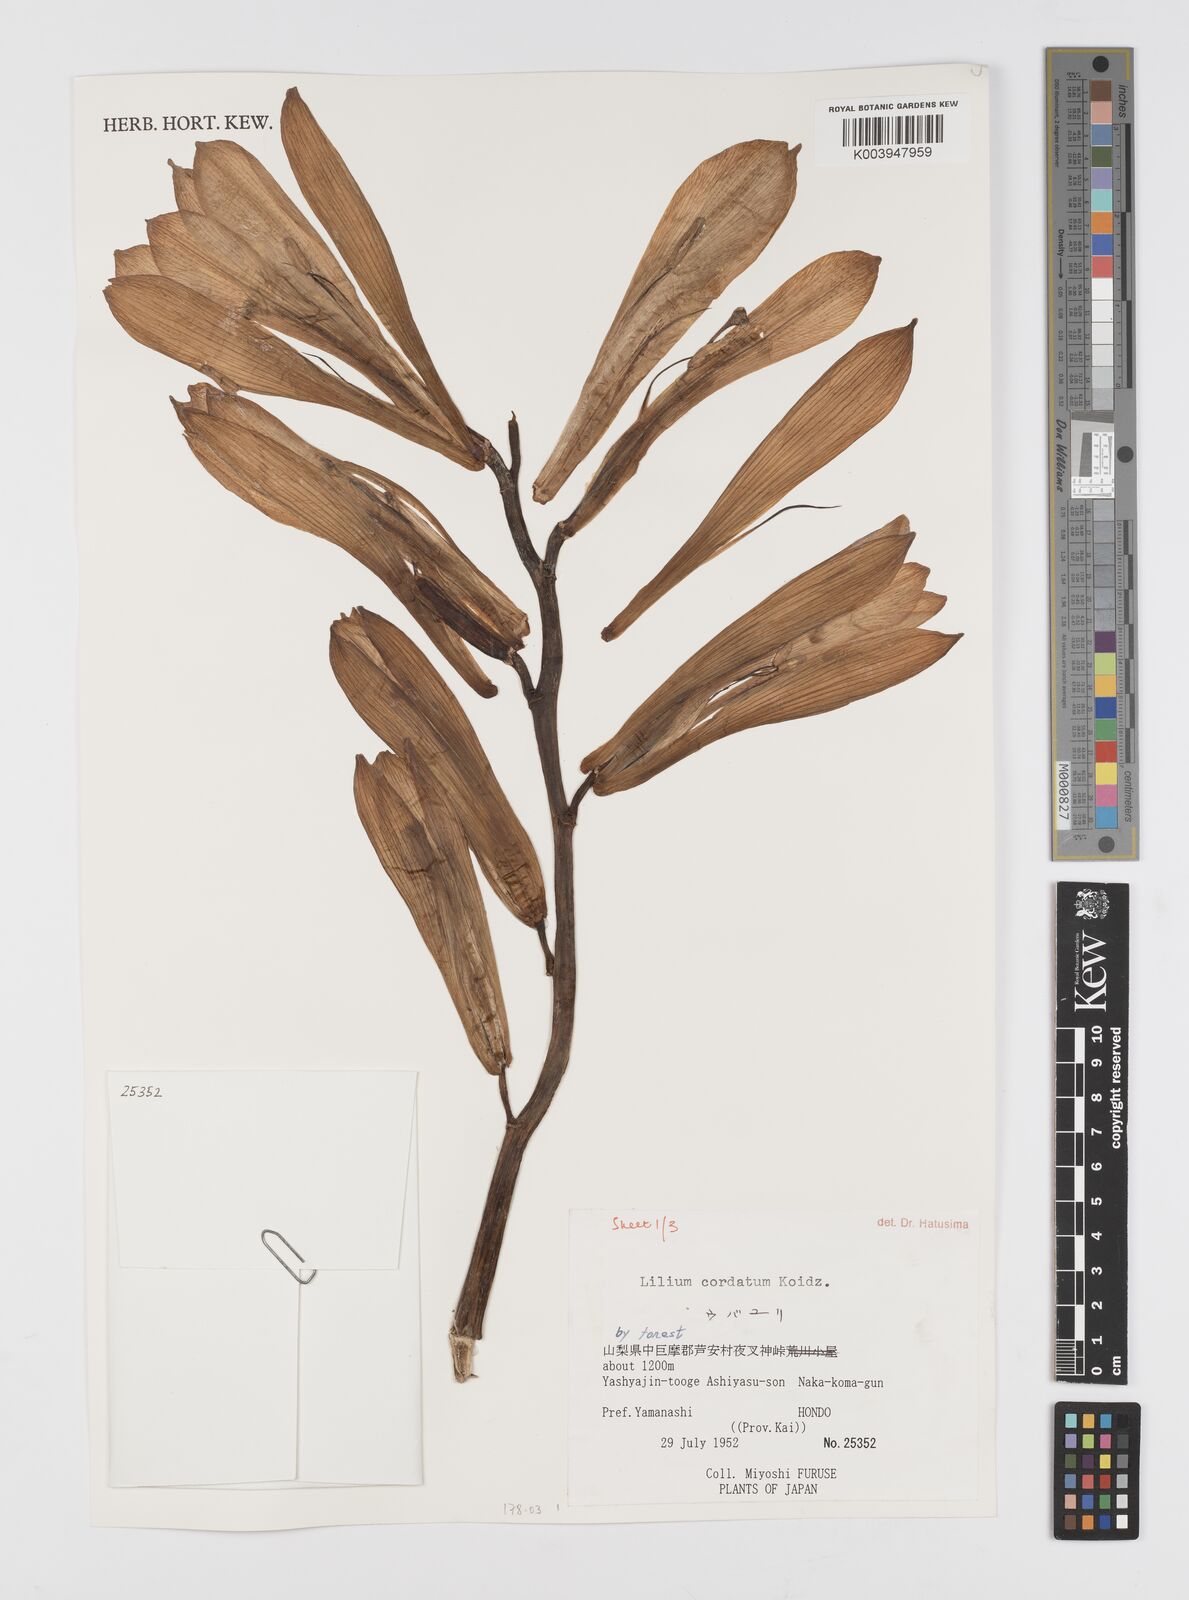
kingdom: Plantae
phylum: Tracheophyta
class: Liliopsida
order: Liliales
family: Liliaceae
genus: Cardiocrinum
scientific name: Cardiocrinum cordatum
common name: Lily
